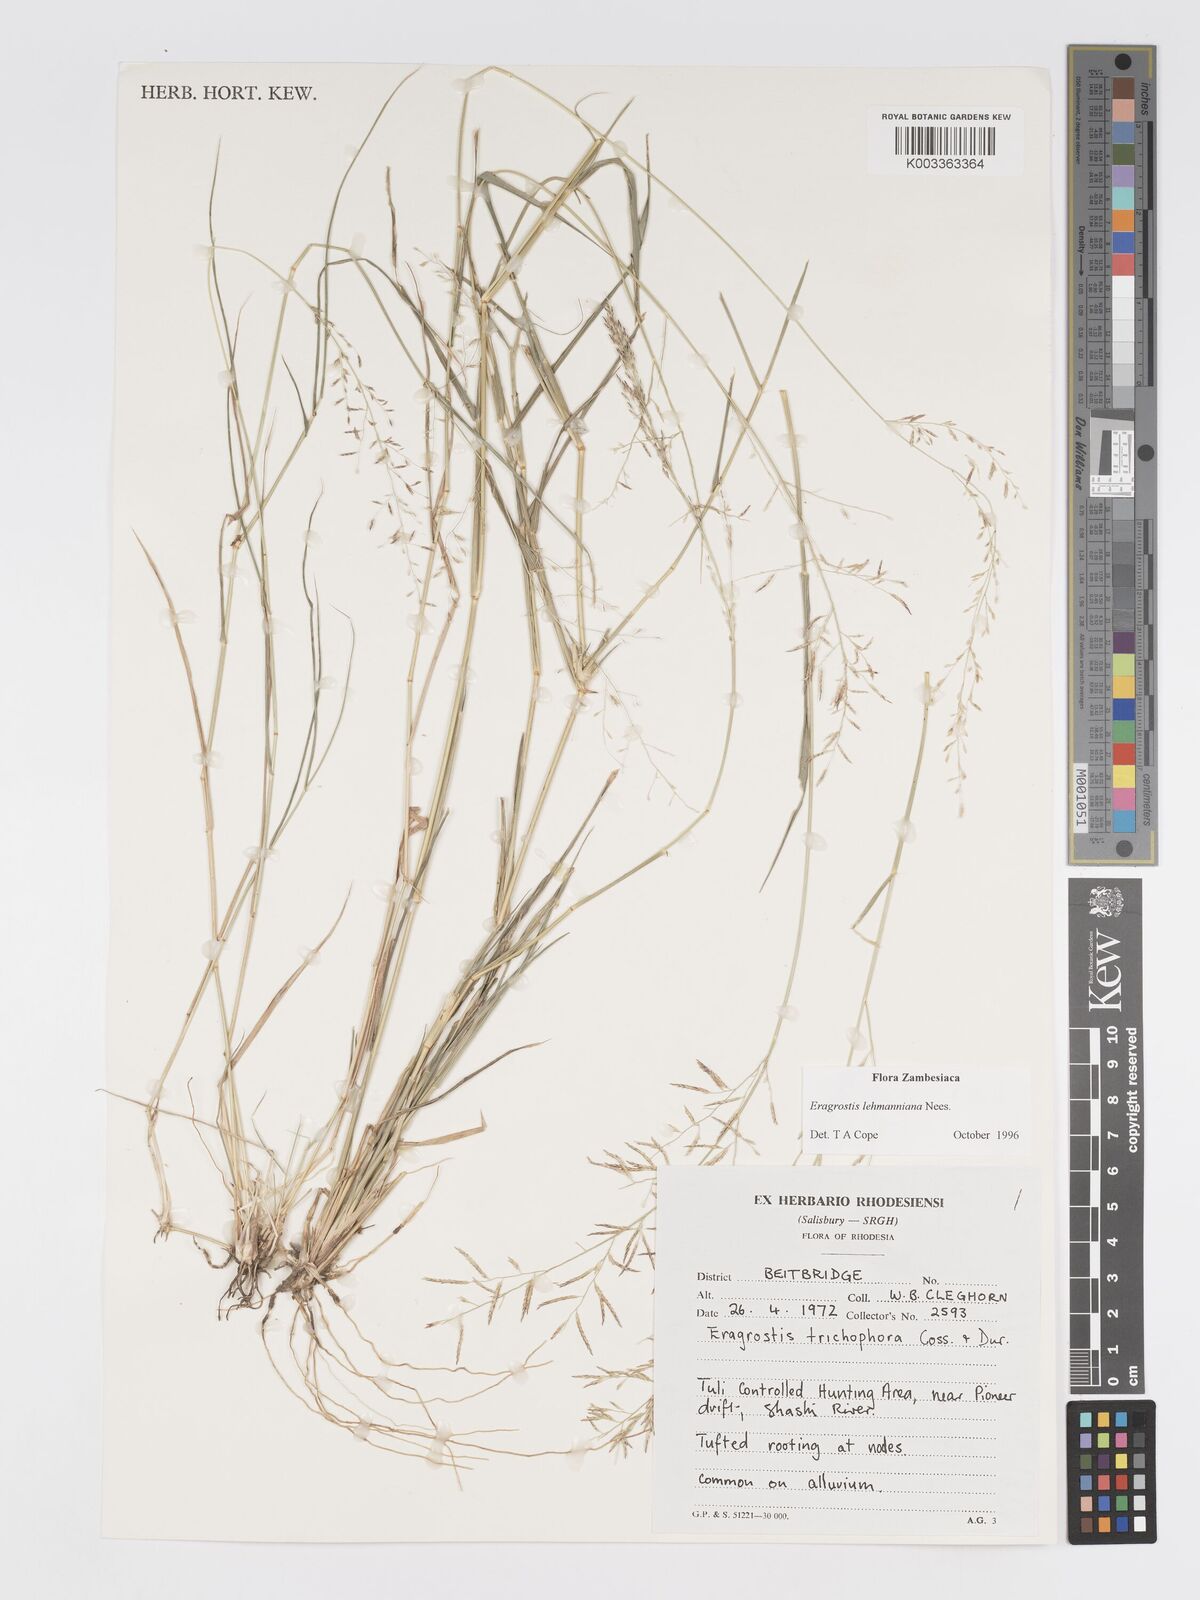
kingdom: Plantae
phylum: Tracheophyta
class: Liliopsida
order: Poales
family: Poaceae
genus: Eragrostis
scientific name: Eragrostis lehmanniana
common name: Lehmann lovegrass
